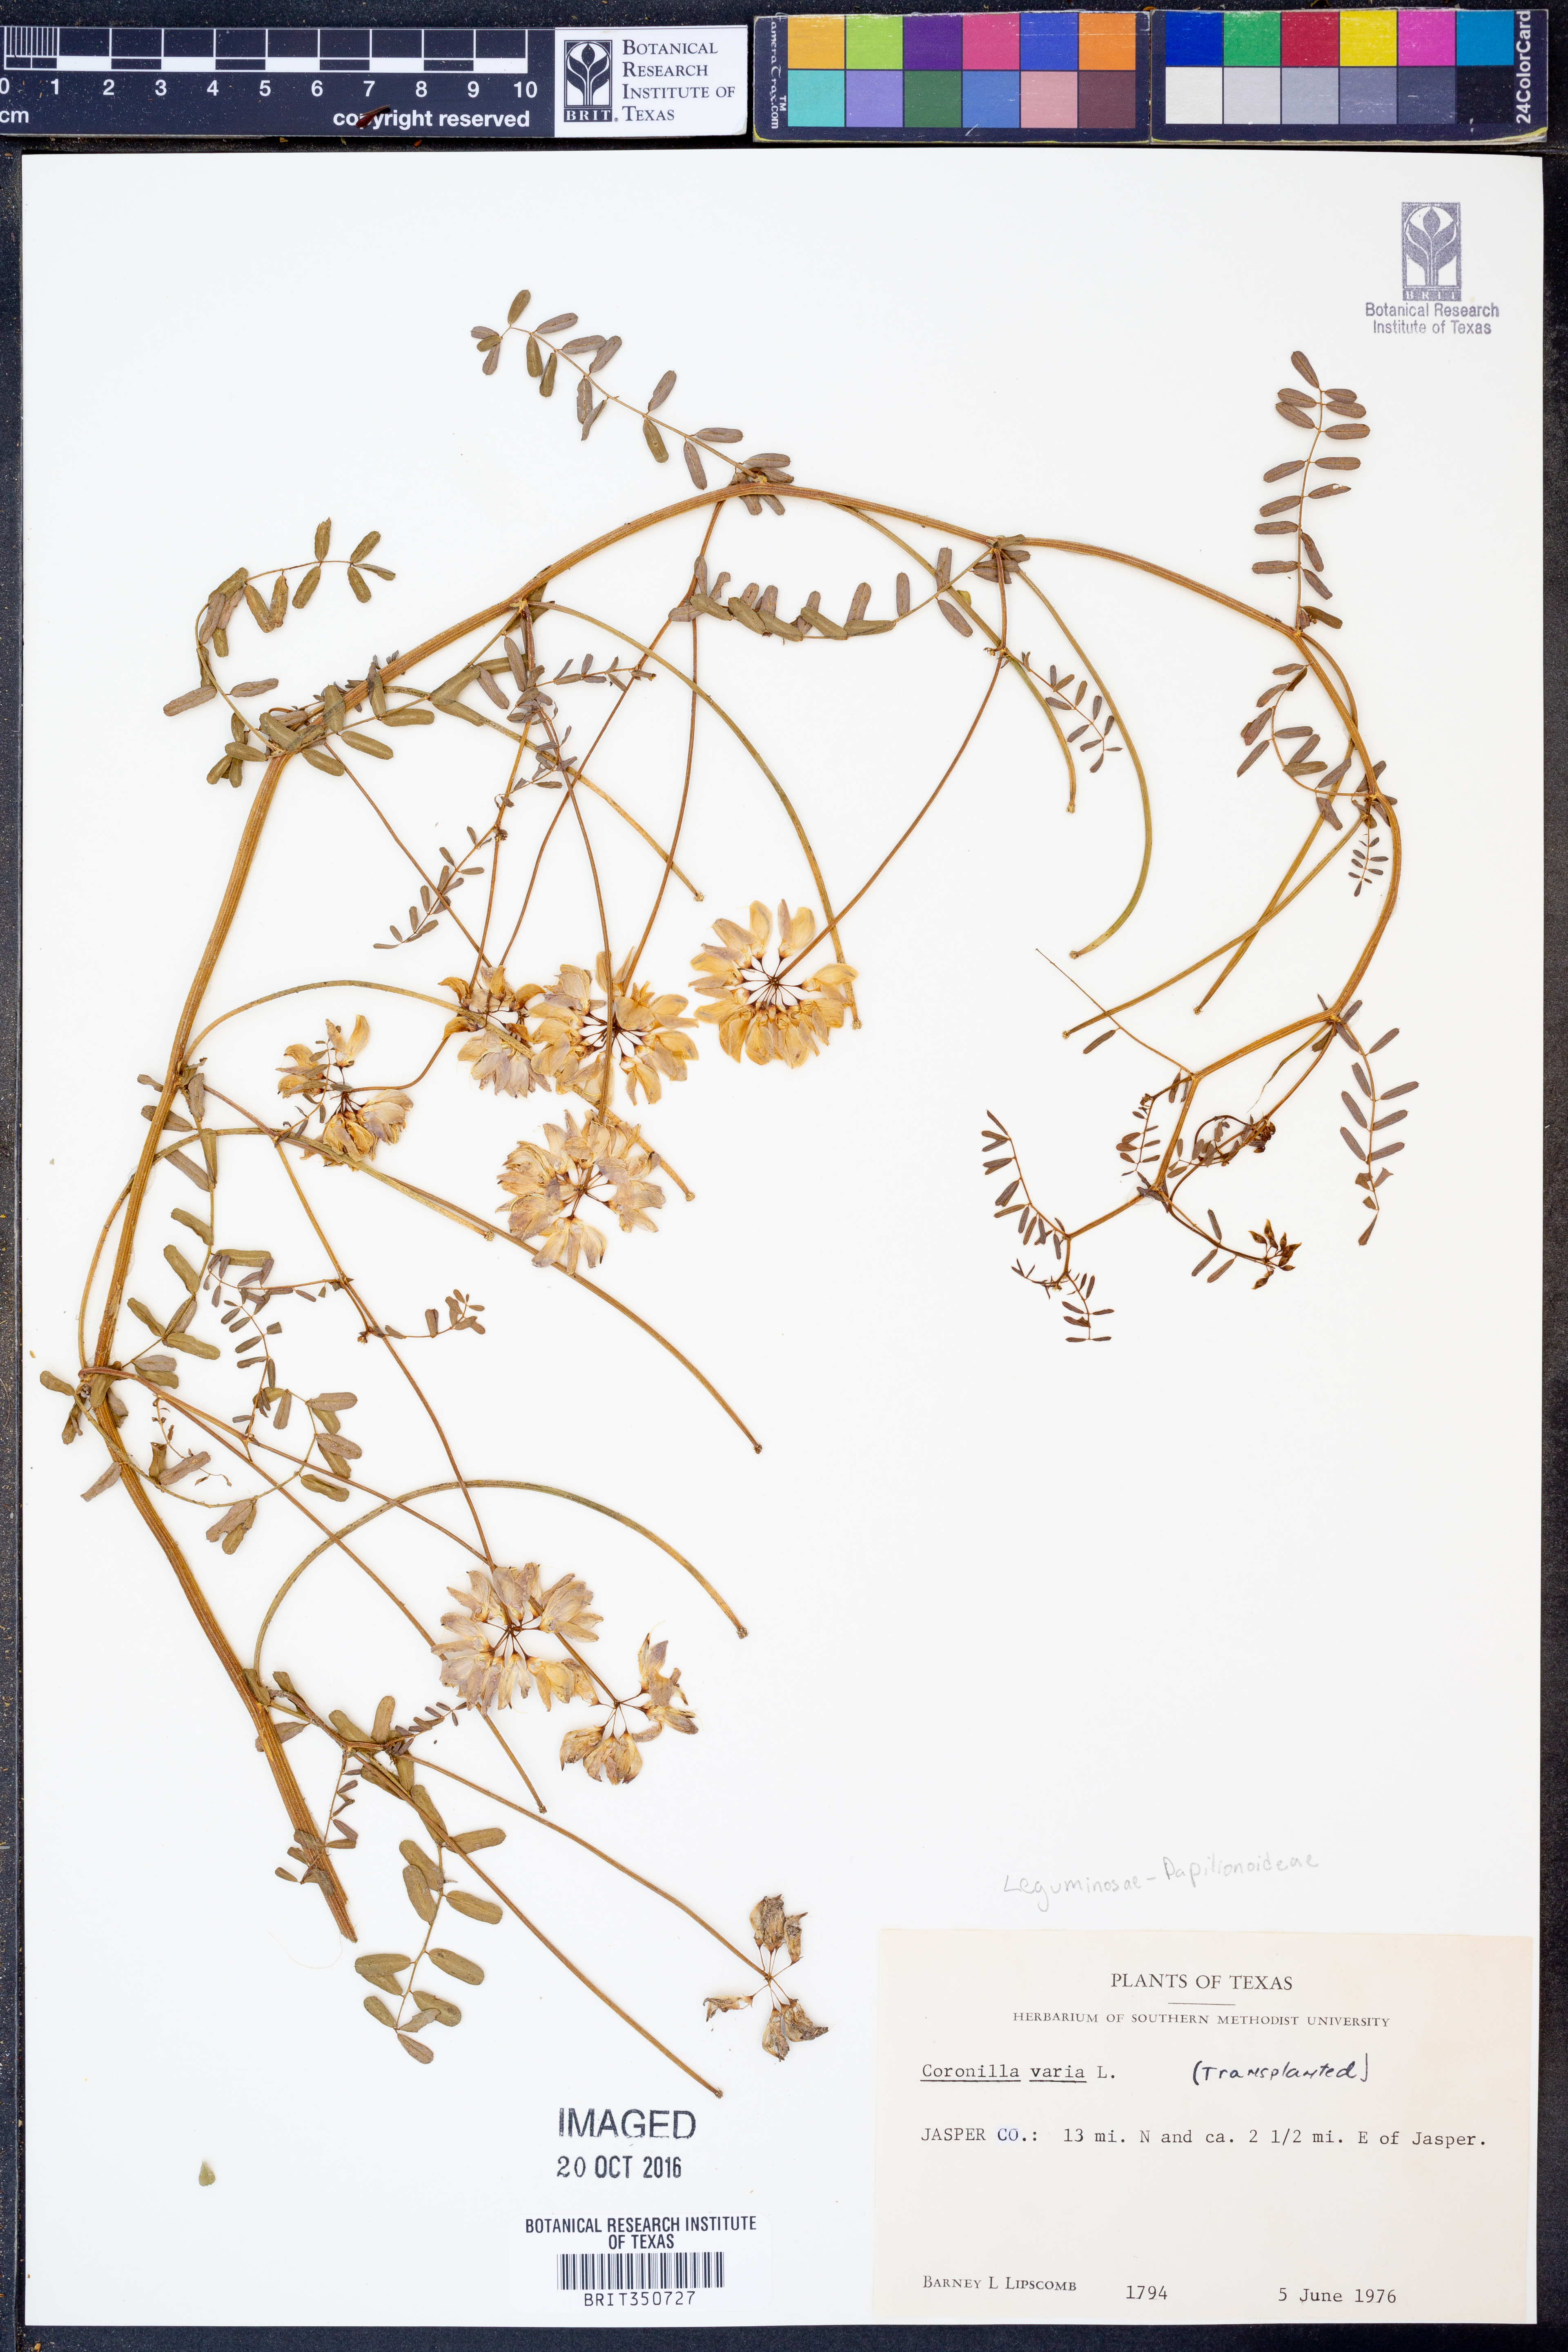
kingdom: Plantae
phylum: Tracheophyta
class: Magnoliopsida
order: Fabales
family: Fabaceae
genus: Coronilla
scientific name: Coronilla varia
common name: Crownvetch
